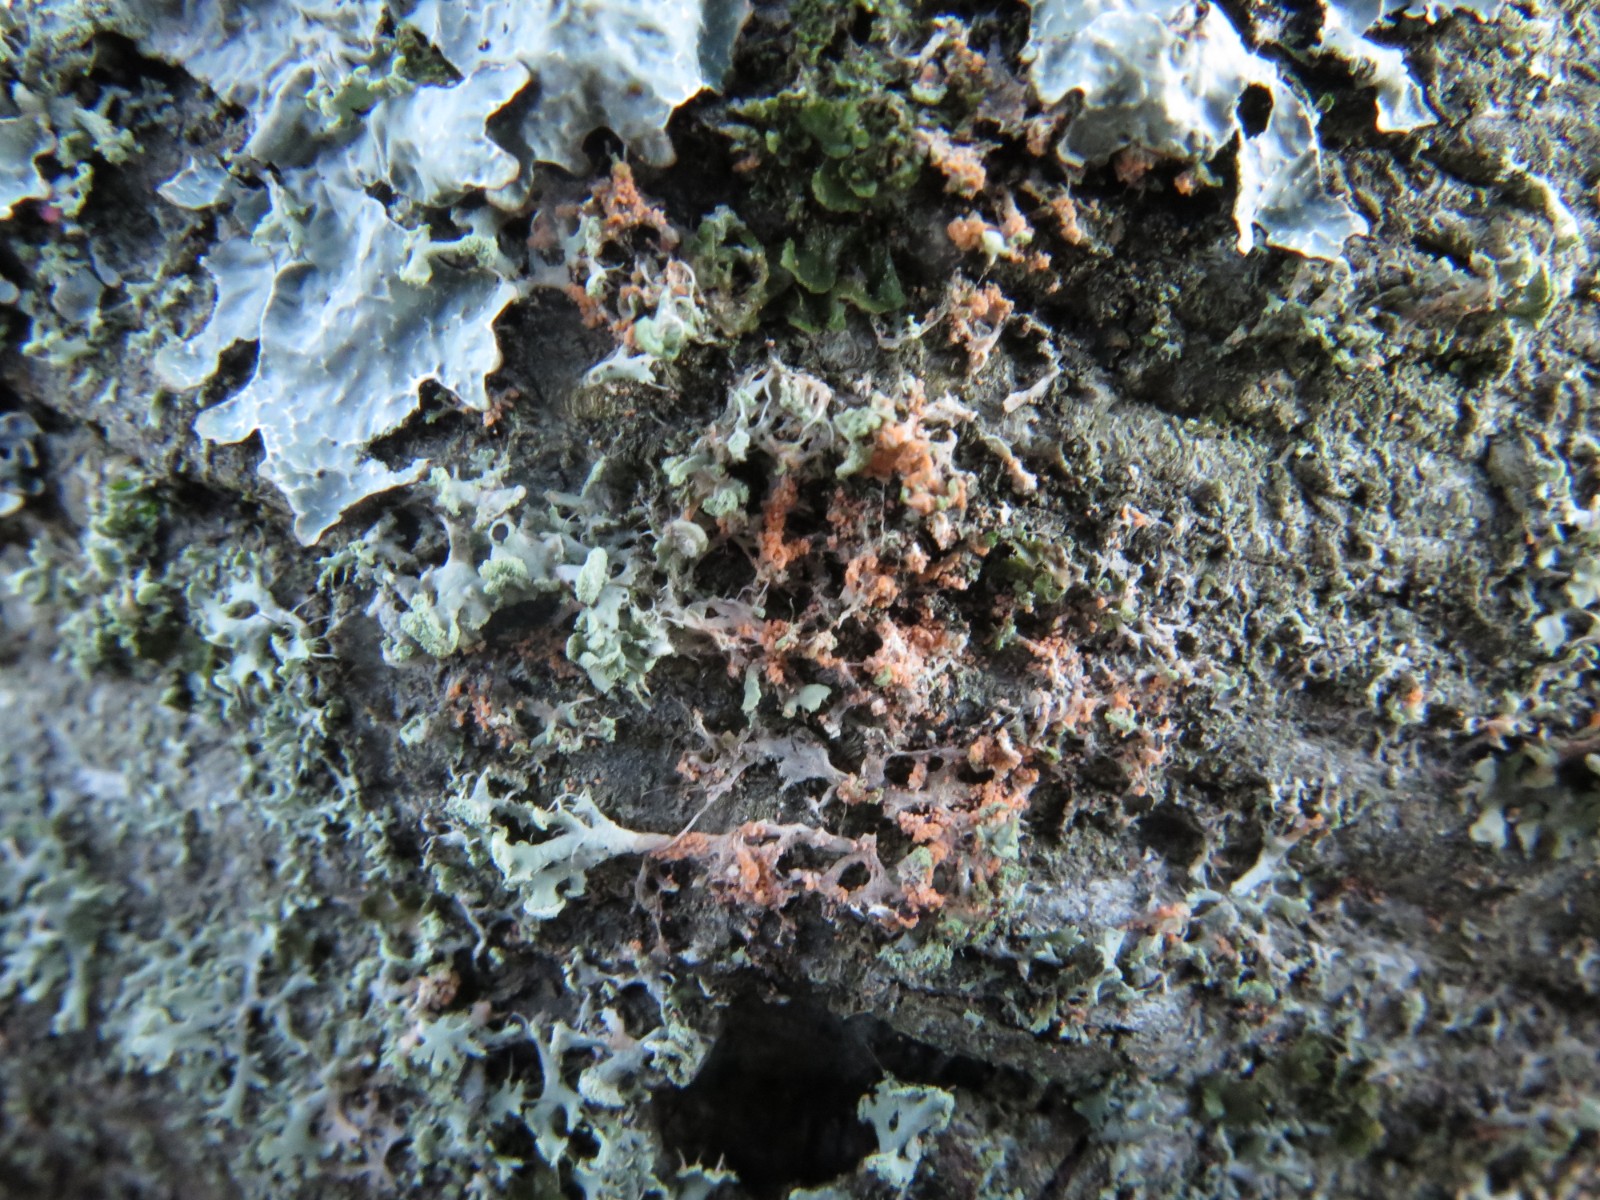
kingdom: Fungi
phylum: Basidiomycota
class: Agaricomycetes
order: Corticiales
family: Corticiaceae
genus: Erythricium
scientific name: Erythricium aurantiacum
